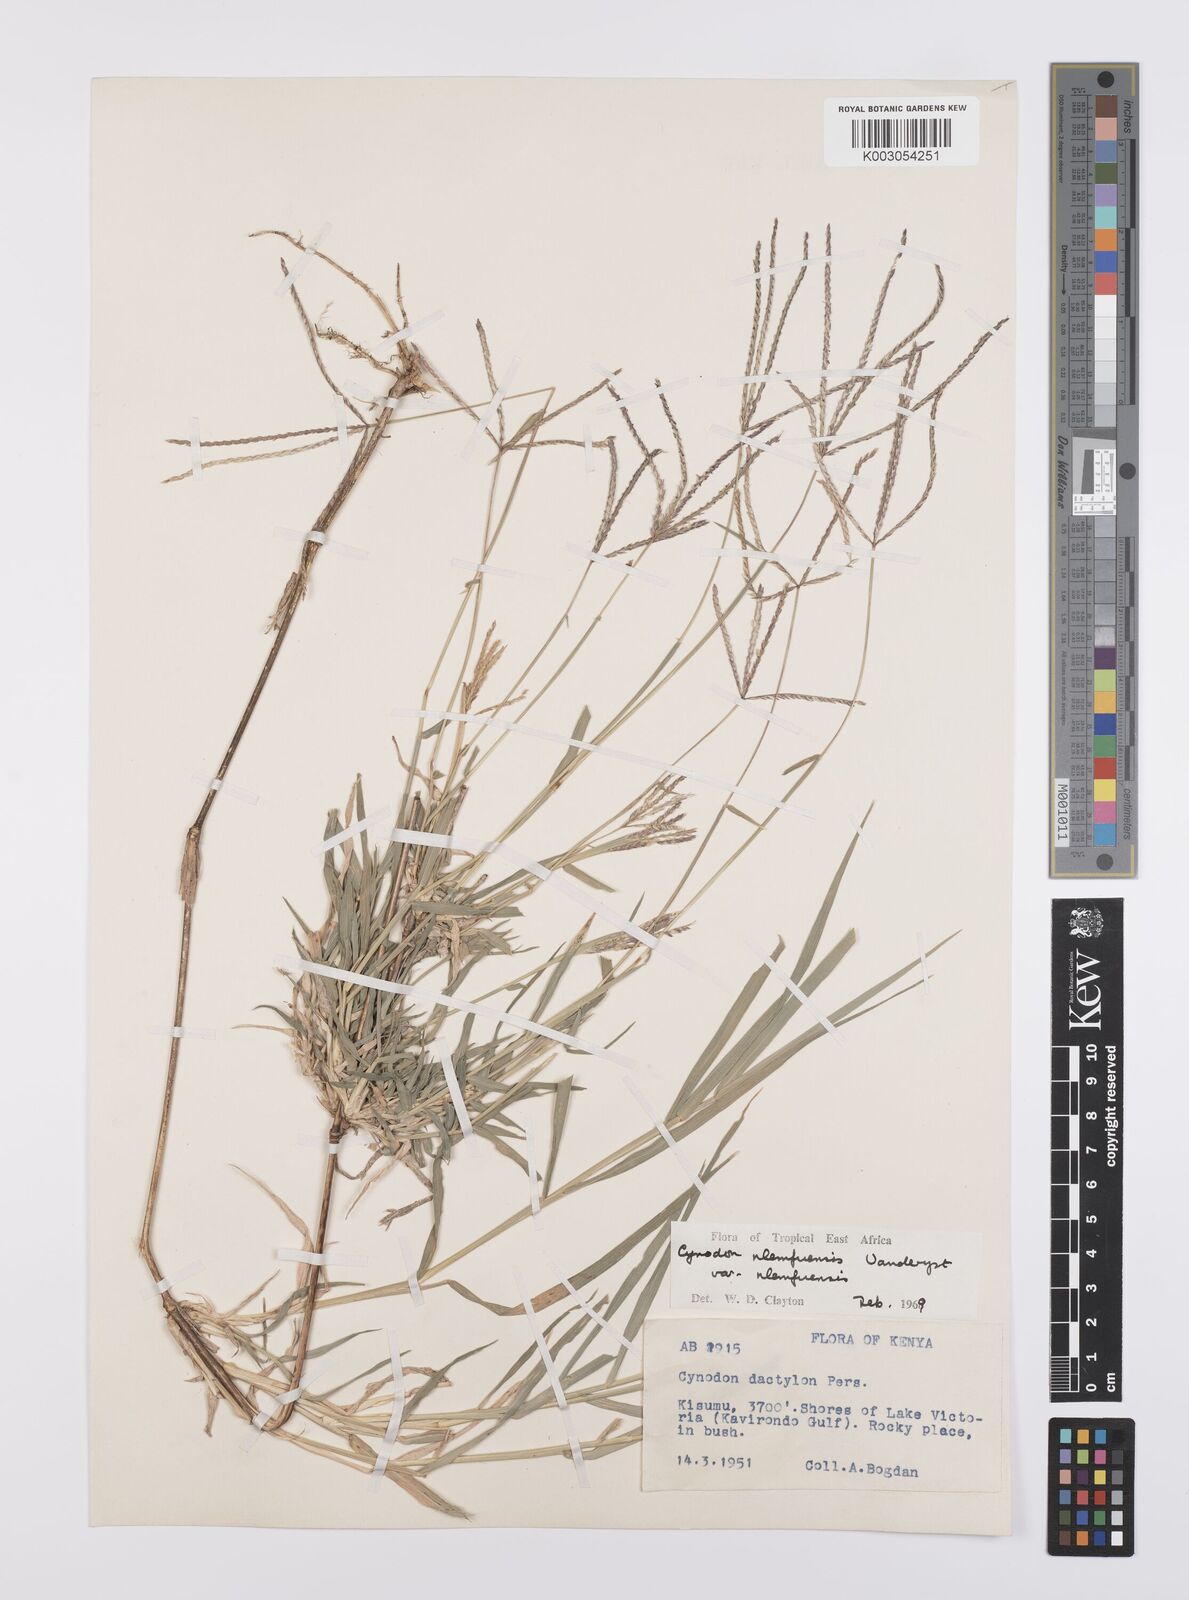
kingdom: Plantae
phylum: Tracheophyta
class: Liliopsida
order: Poales
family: Poaceae
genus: Cynodon
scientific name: Cynodon nlemfuensis
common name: African bermudagrass
